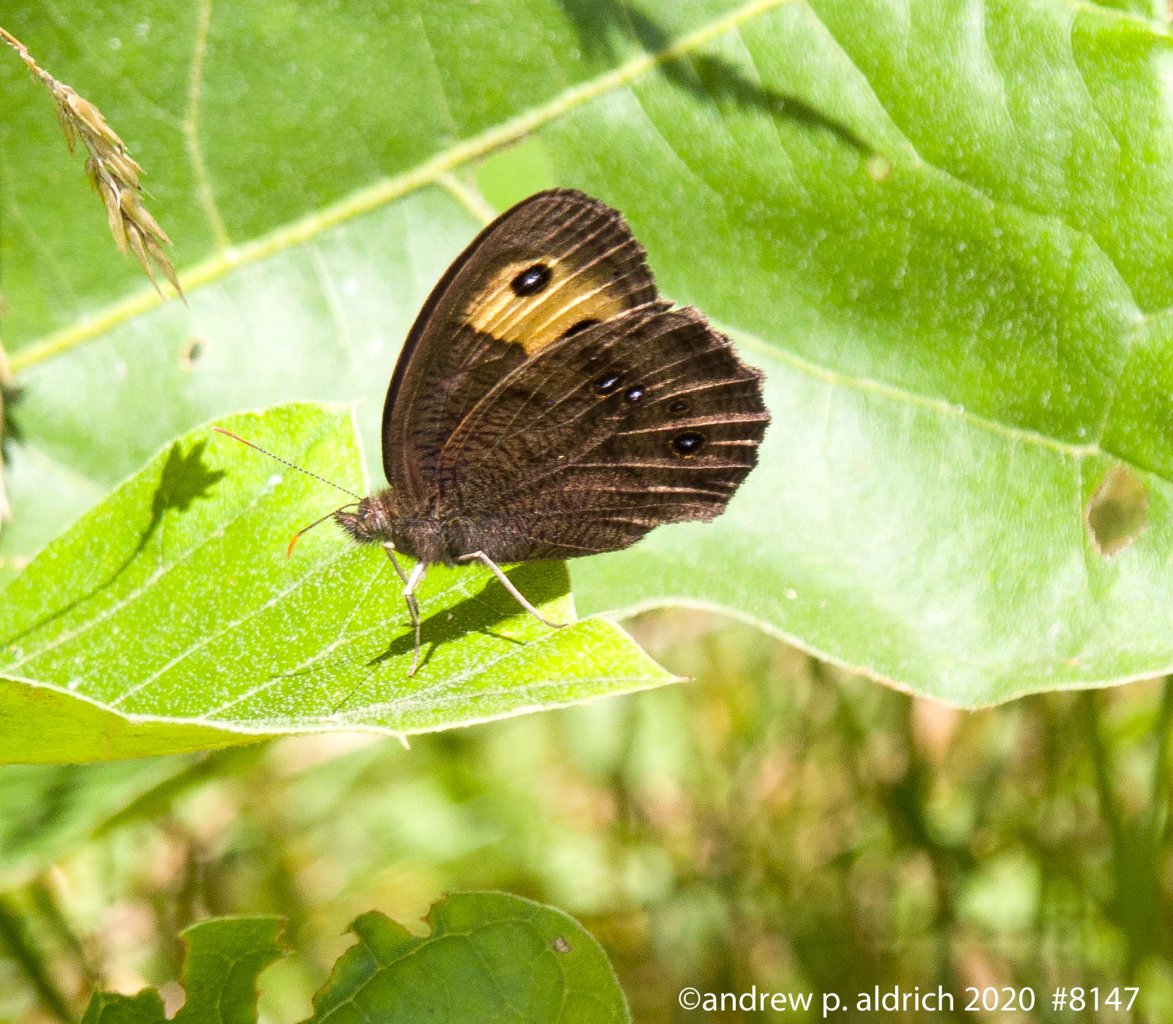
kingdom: Animalia
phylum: Arthropoda
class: Insecta
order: Lepidoptera
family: Nymphalidae
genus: Cercyonis
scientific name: Cercyonis pegala
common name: Common Wood-Nymph
